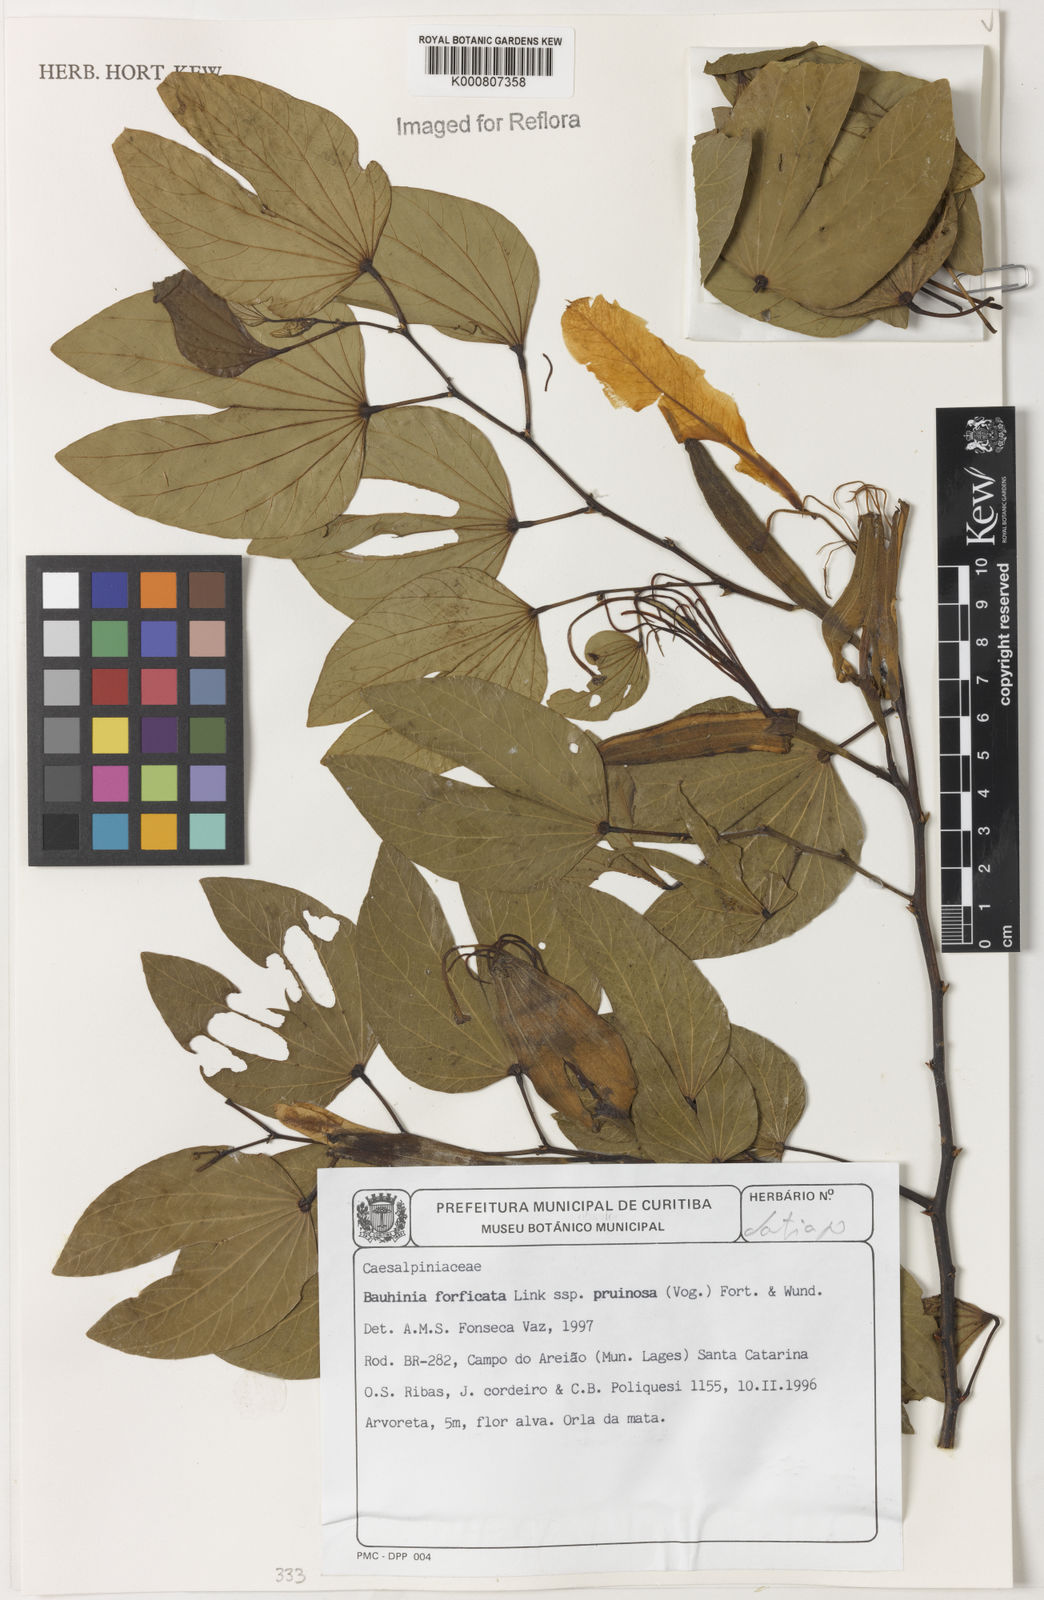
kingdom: Plantae
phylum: Tracheophyta
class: Magnoliopsida
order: Fabales
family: Fabaceae
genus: Bauhinia
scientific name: Bauhinia forficata
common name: Orchid tree
